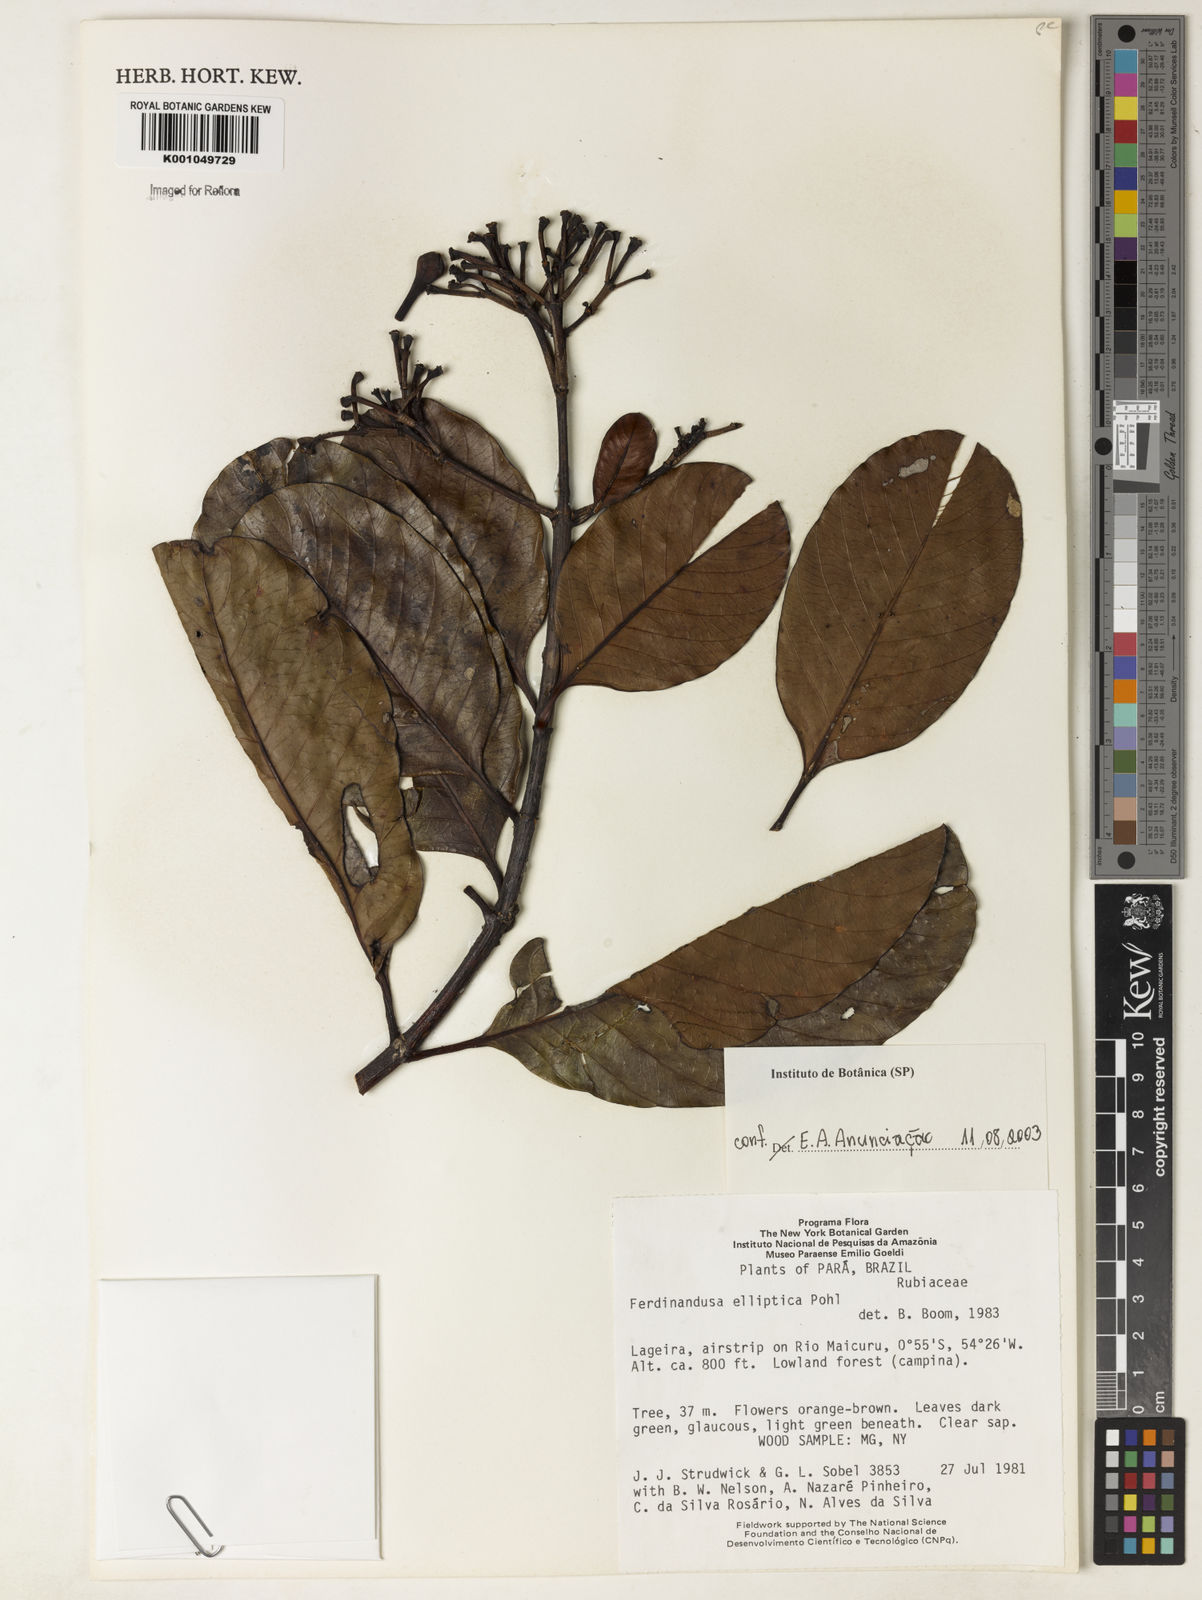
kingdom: Plantae
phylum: Tracheophyta
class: Magnoliopsida
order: Gentianales
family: Rubiaceae
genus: Ferdinandusa
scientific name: Ferdinandusa elliptica
